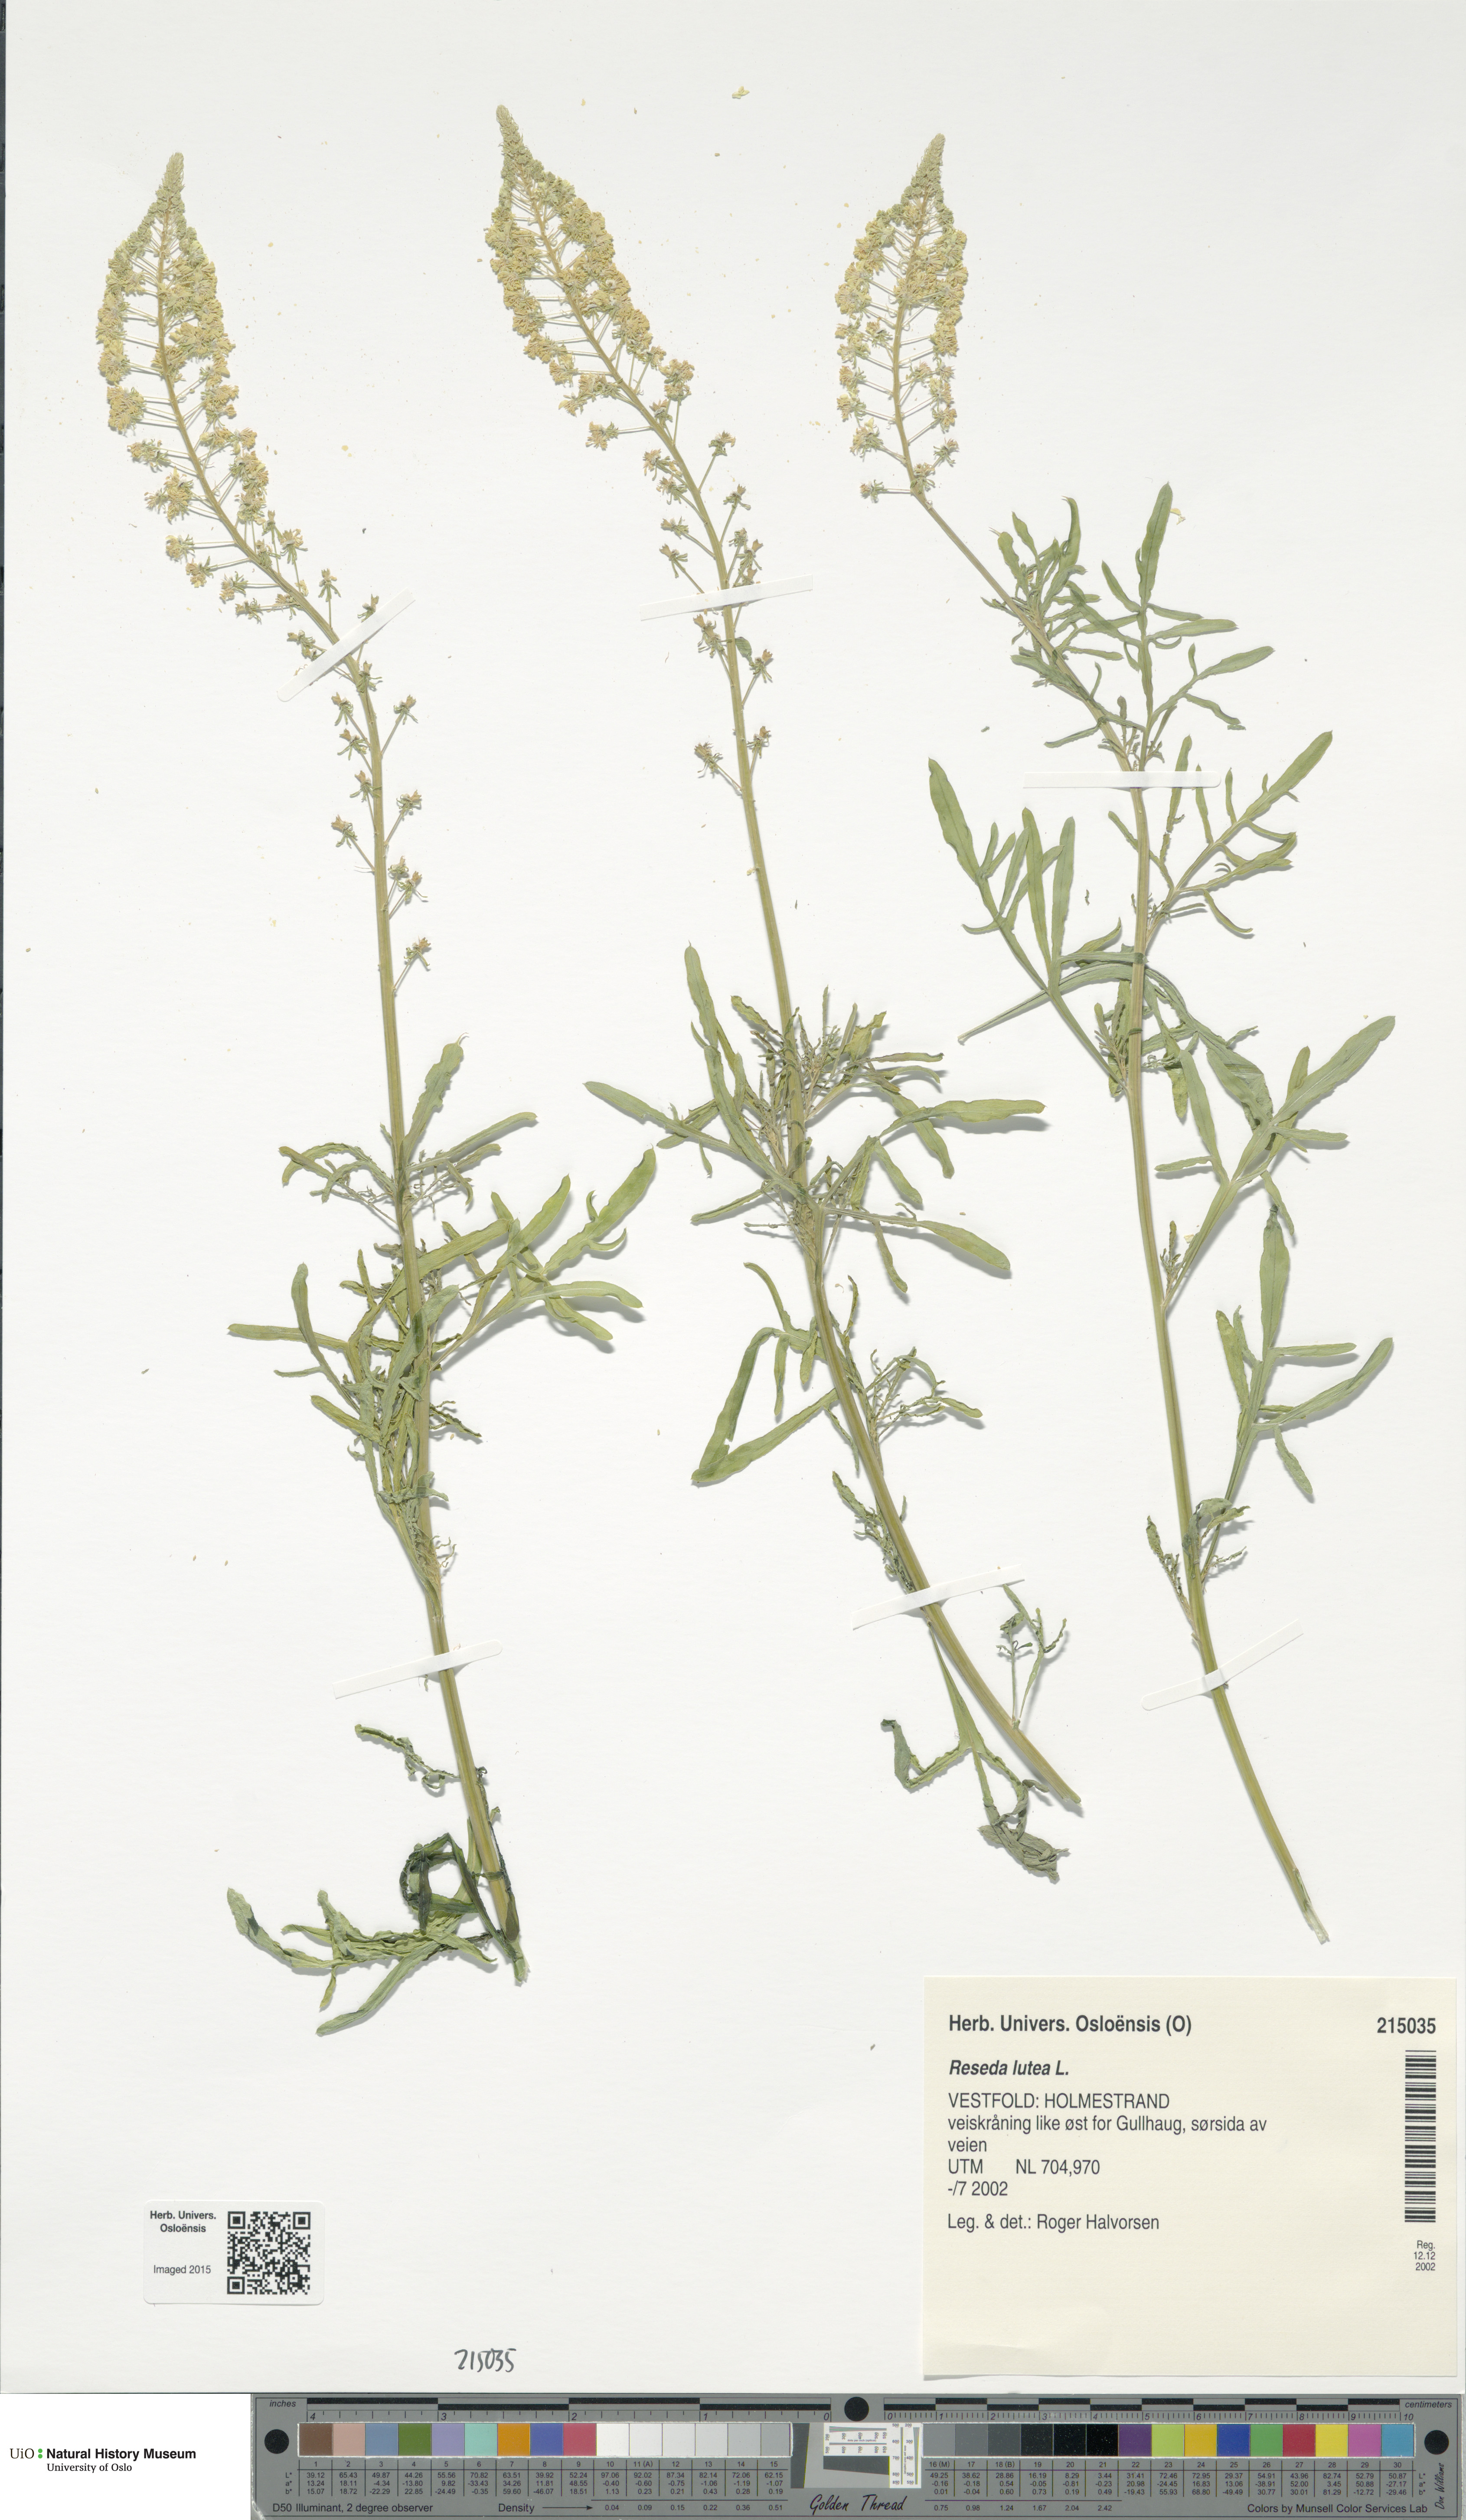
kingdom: Plantae
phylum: Tracheophyta
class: Magnoliopsida
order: Brassicales
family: Resedaceae
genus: Reseda
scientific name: Reseda lutea
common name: Wild mignonette
